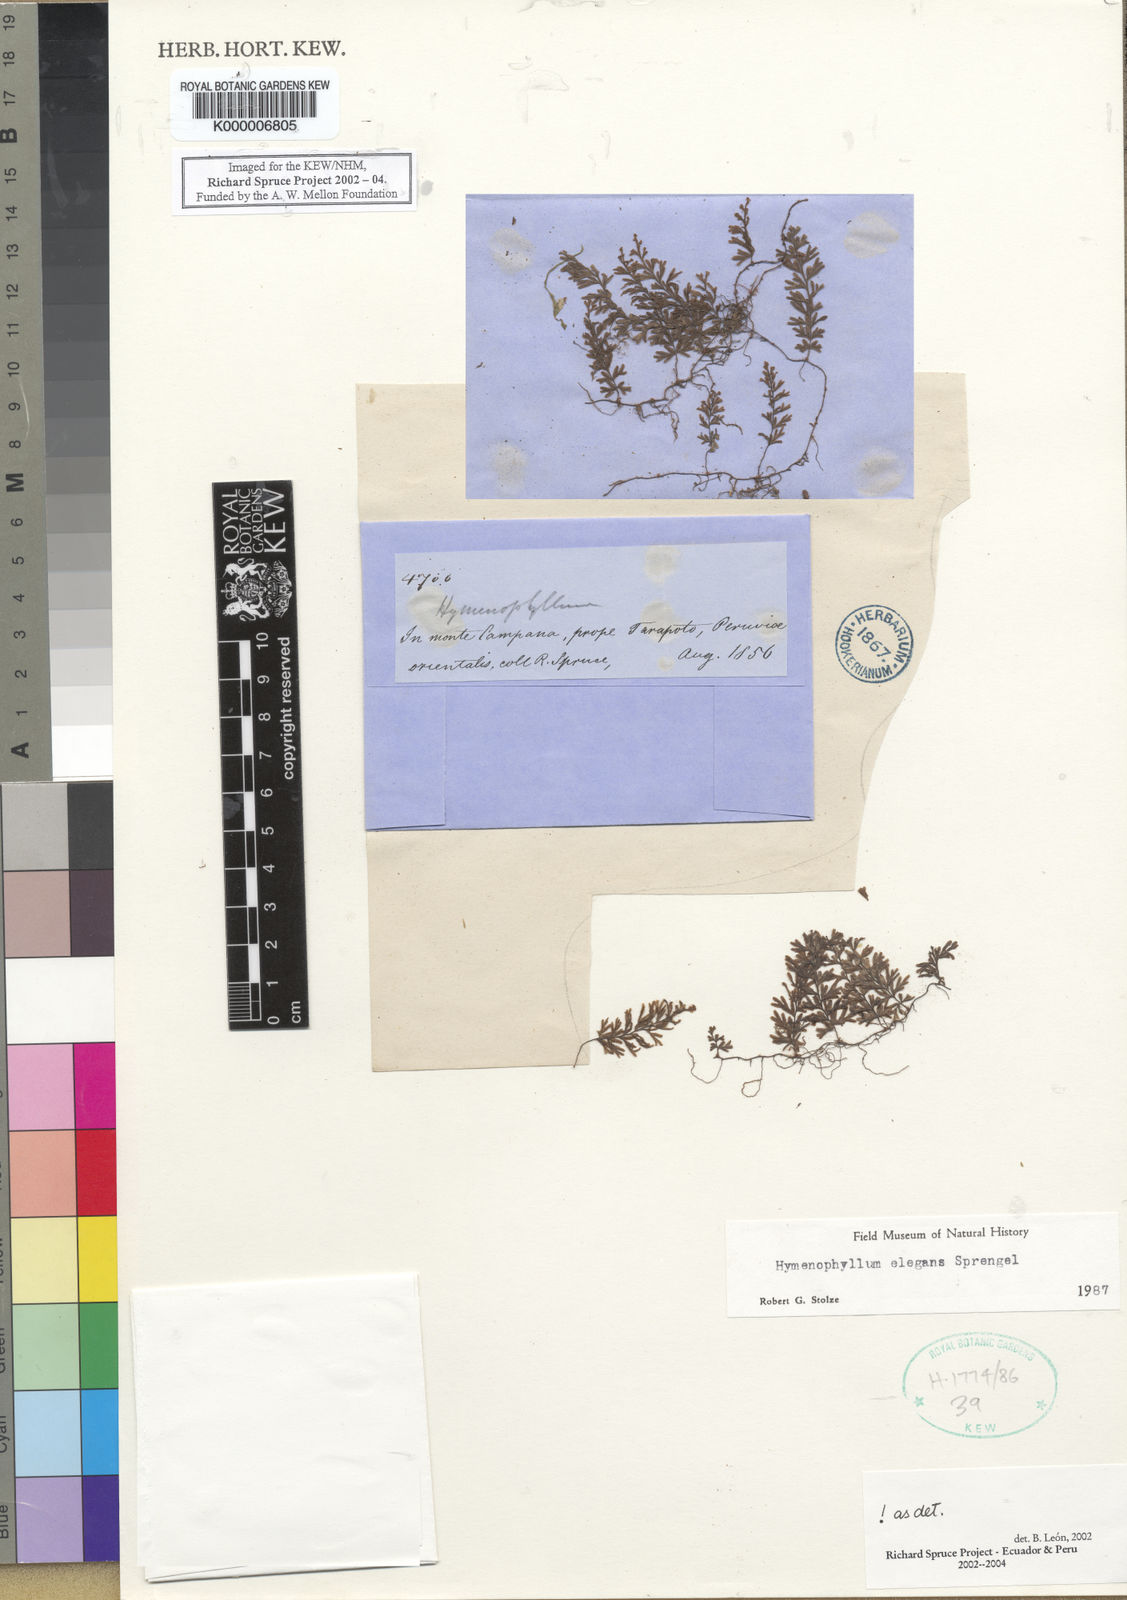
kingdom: Plantae
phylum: Tracheophyta
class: Polypodiopsida
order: Hymenophyllales
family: Hymenophyllaceae
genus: Hymenophyllum
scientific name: Hymenophyllum elegans
